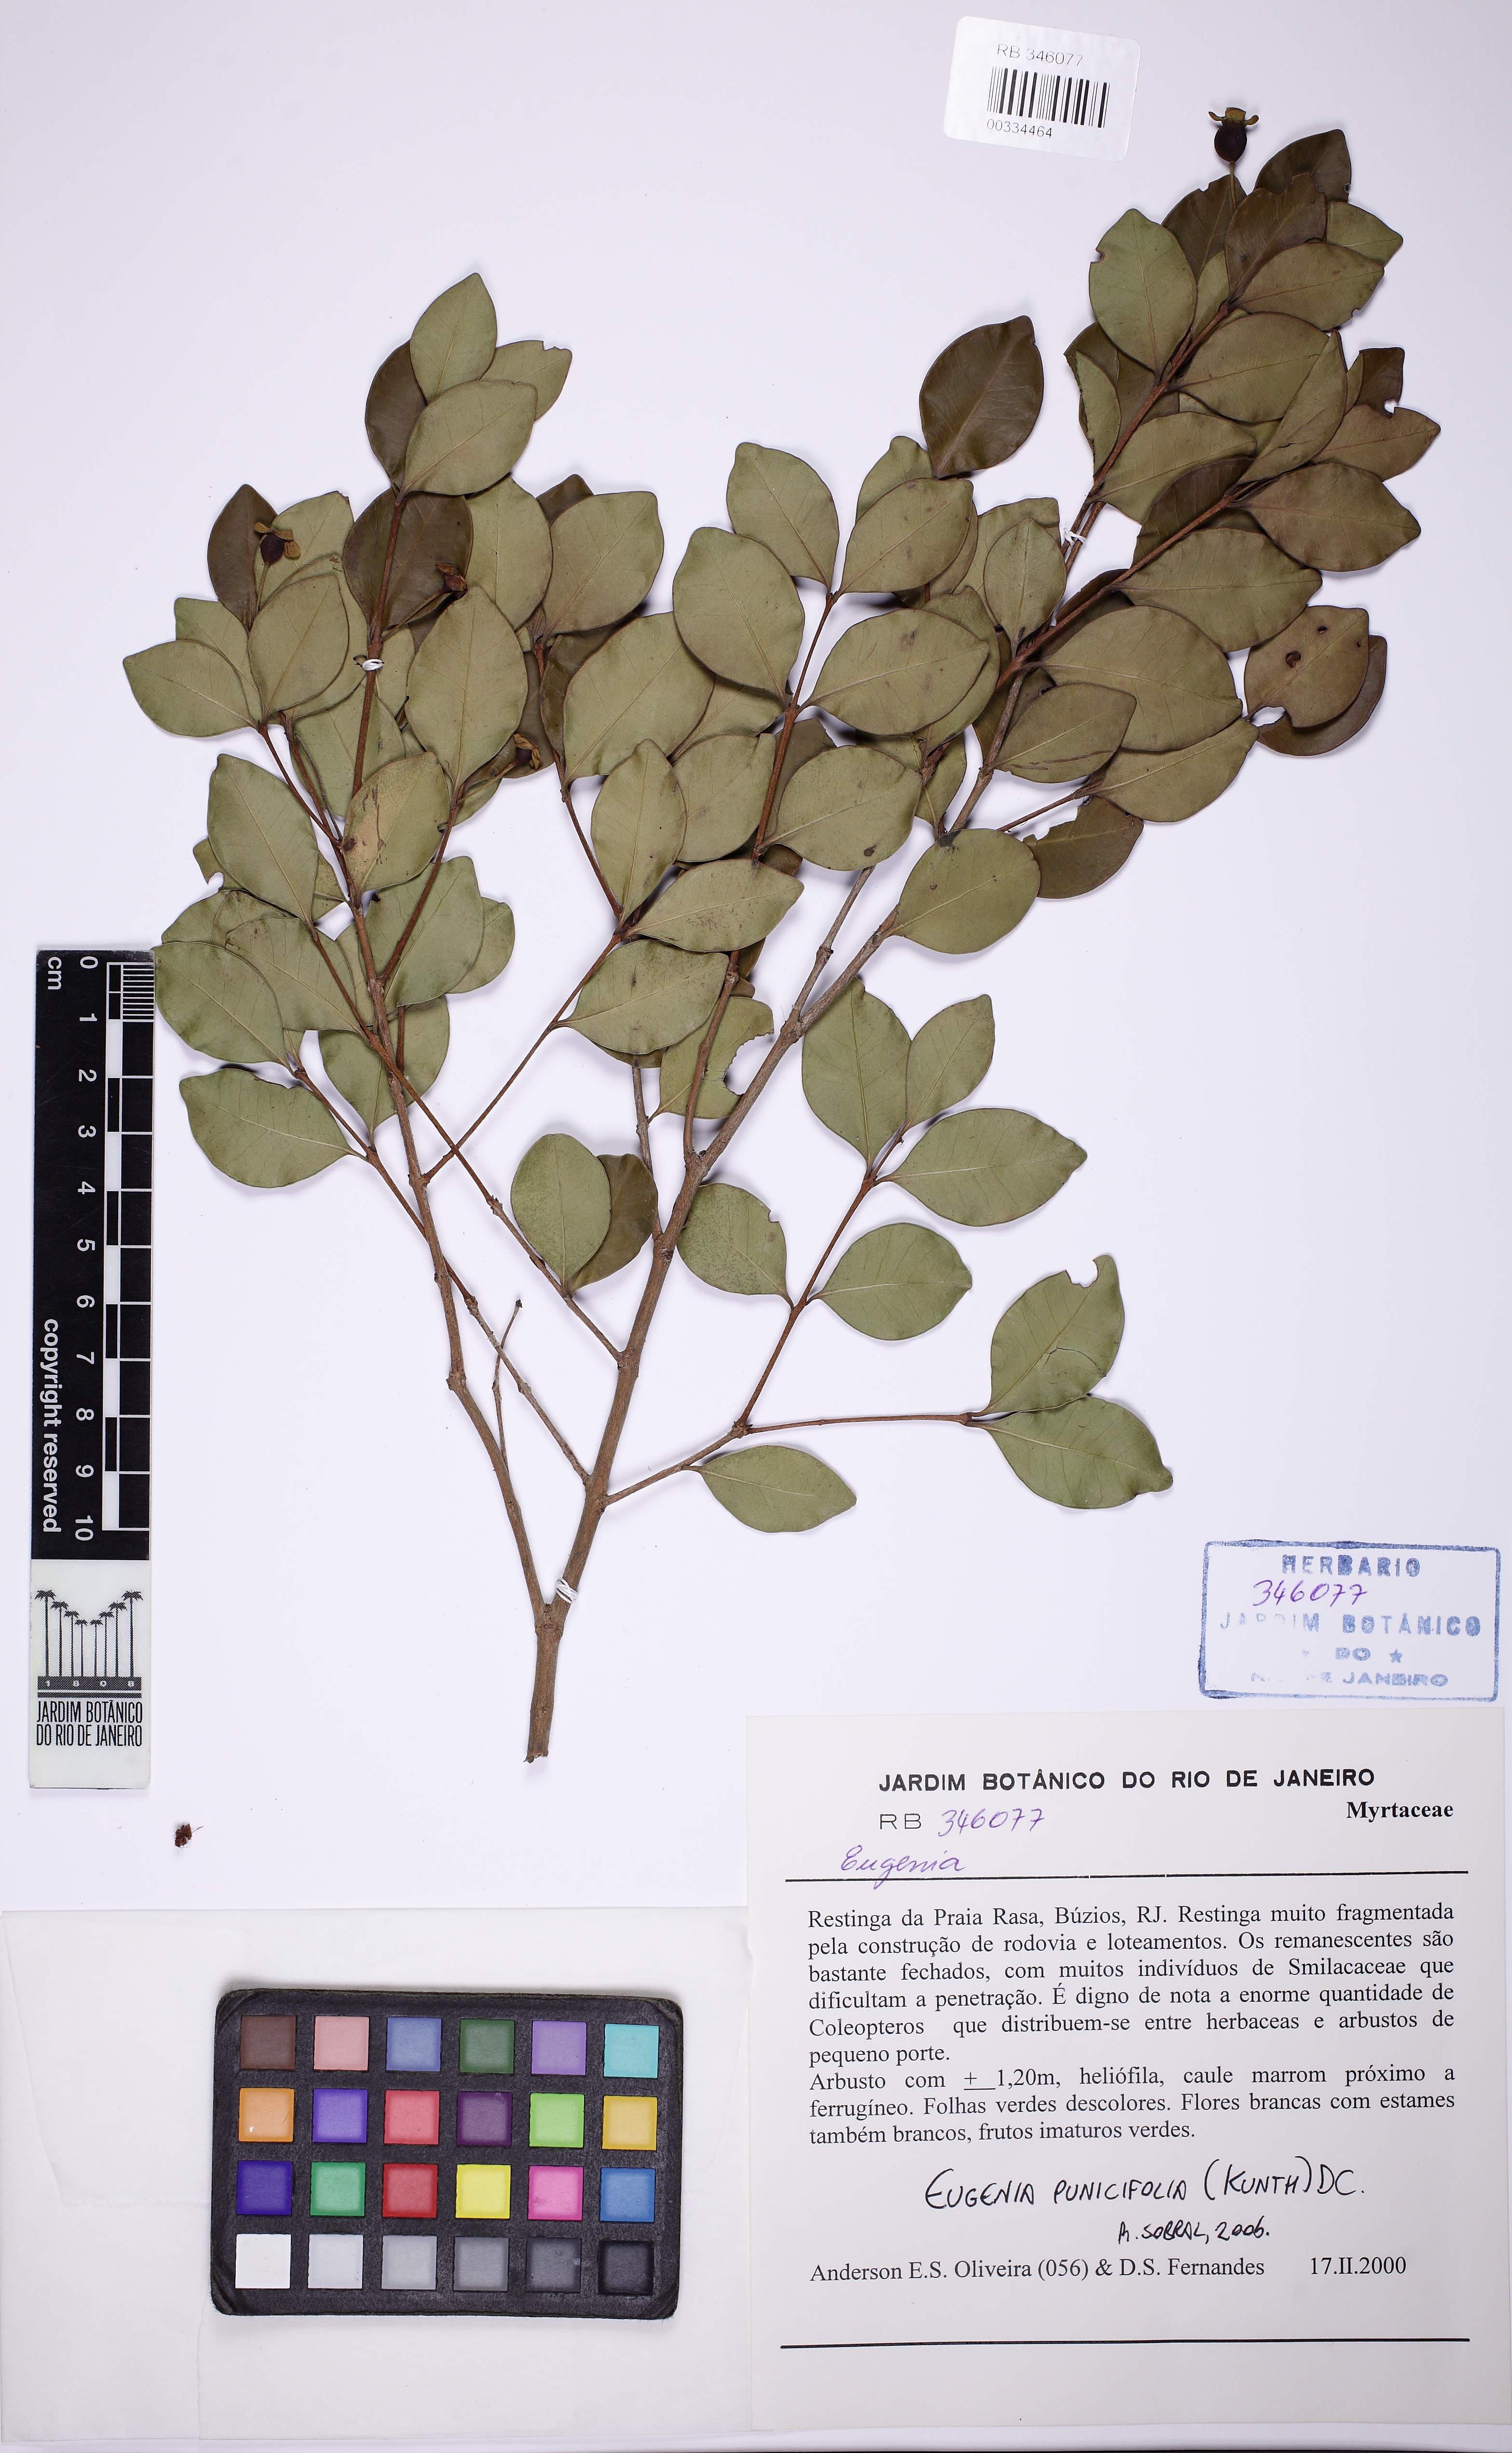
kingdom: Plantae
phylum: Tracheophyta
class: Magnoliopsida
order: Myrtales
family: Myrtaceae
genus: Eugenia
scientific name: Eugenia punicifolia
